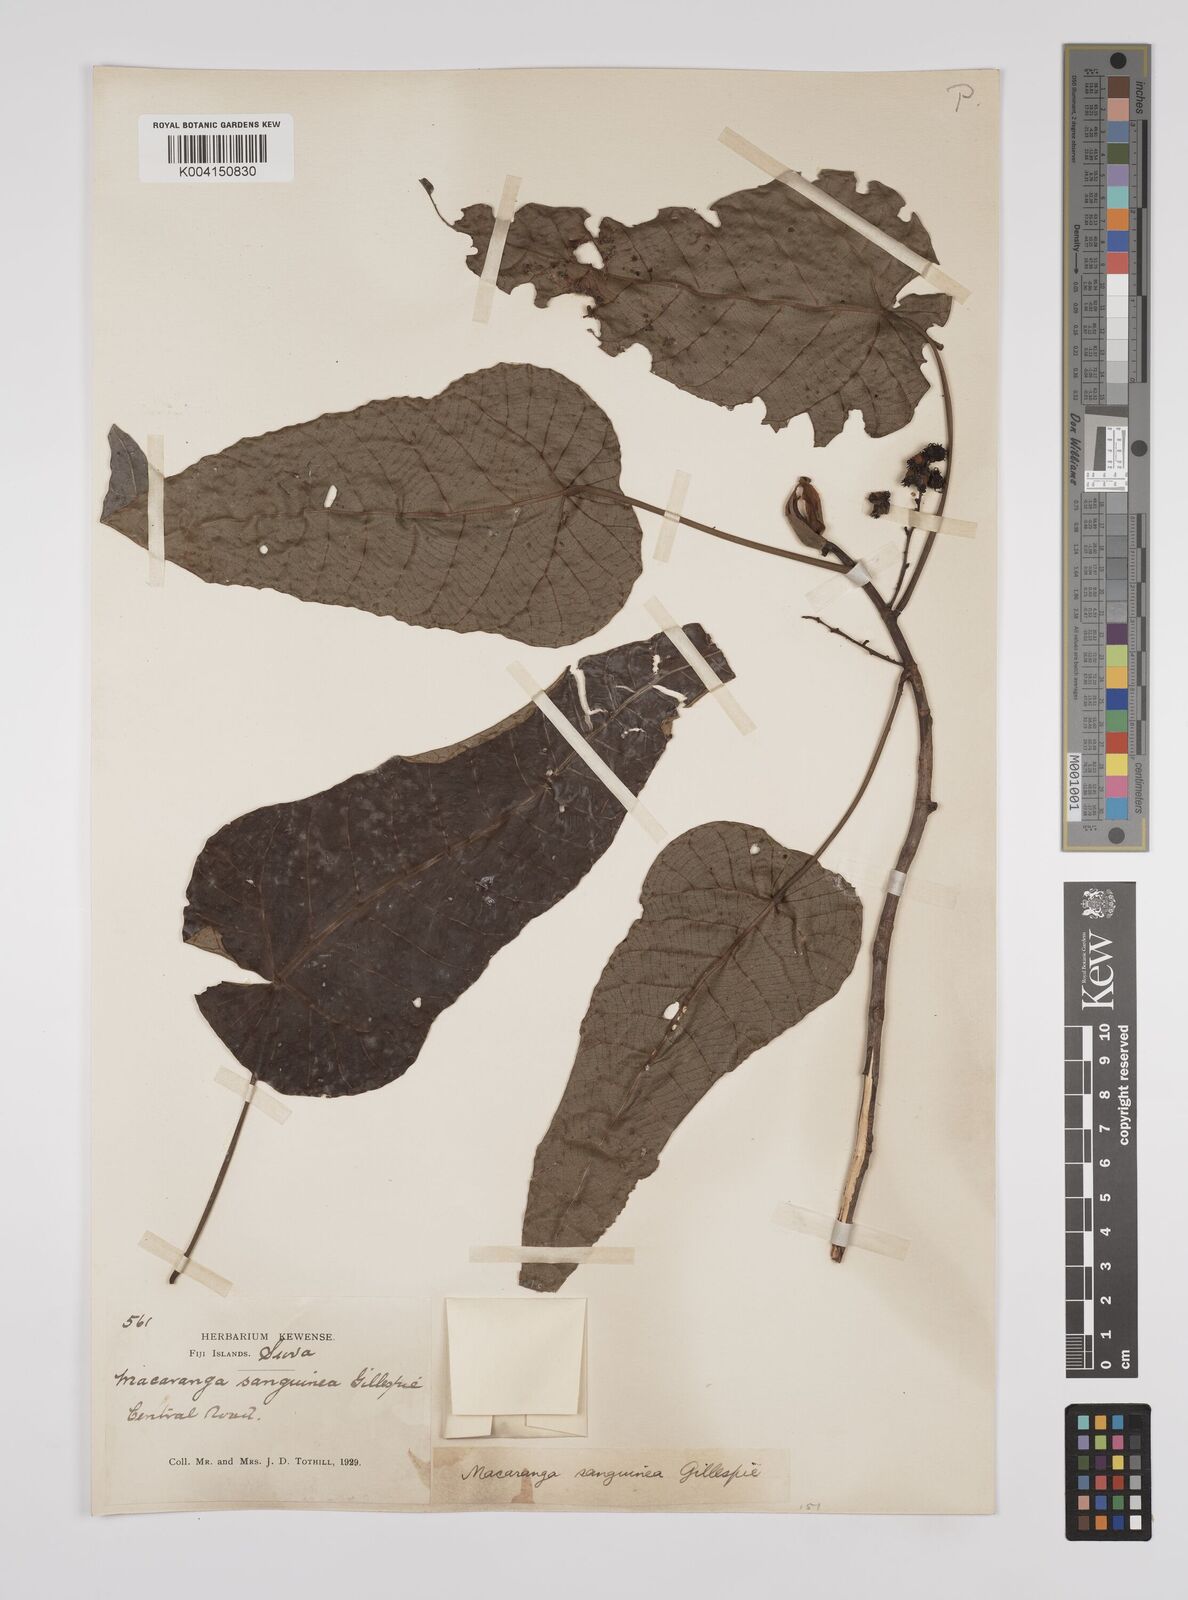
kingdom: Plantae
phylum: Tracheophyta
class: Magnoliopsida
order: Malpighiales
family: Euphorbiaceae
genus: Macaranga
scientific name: Macaranga vitiensis
